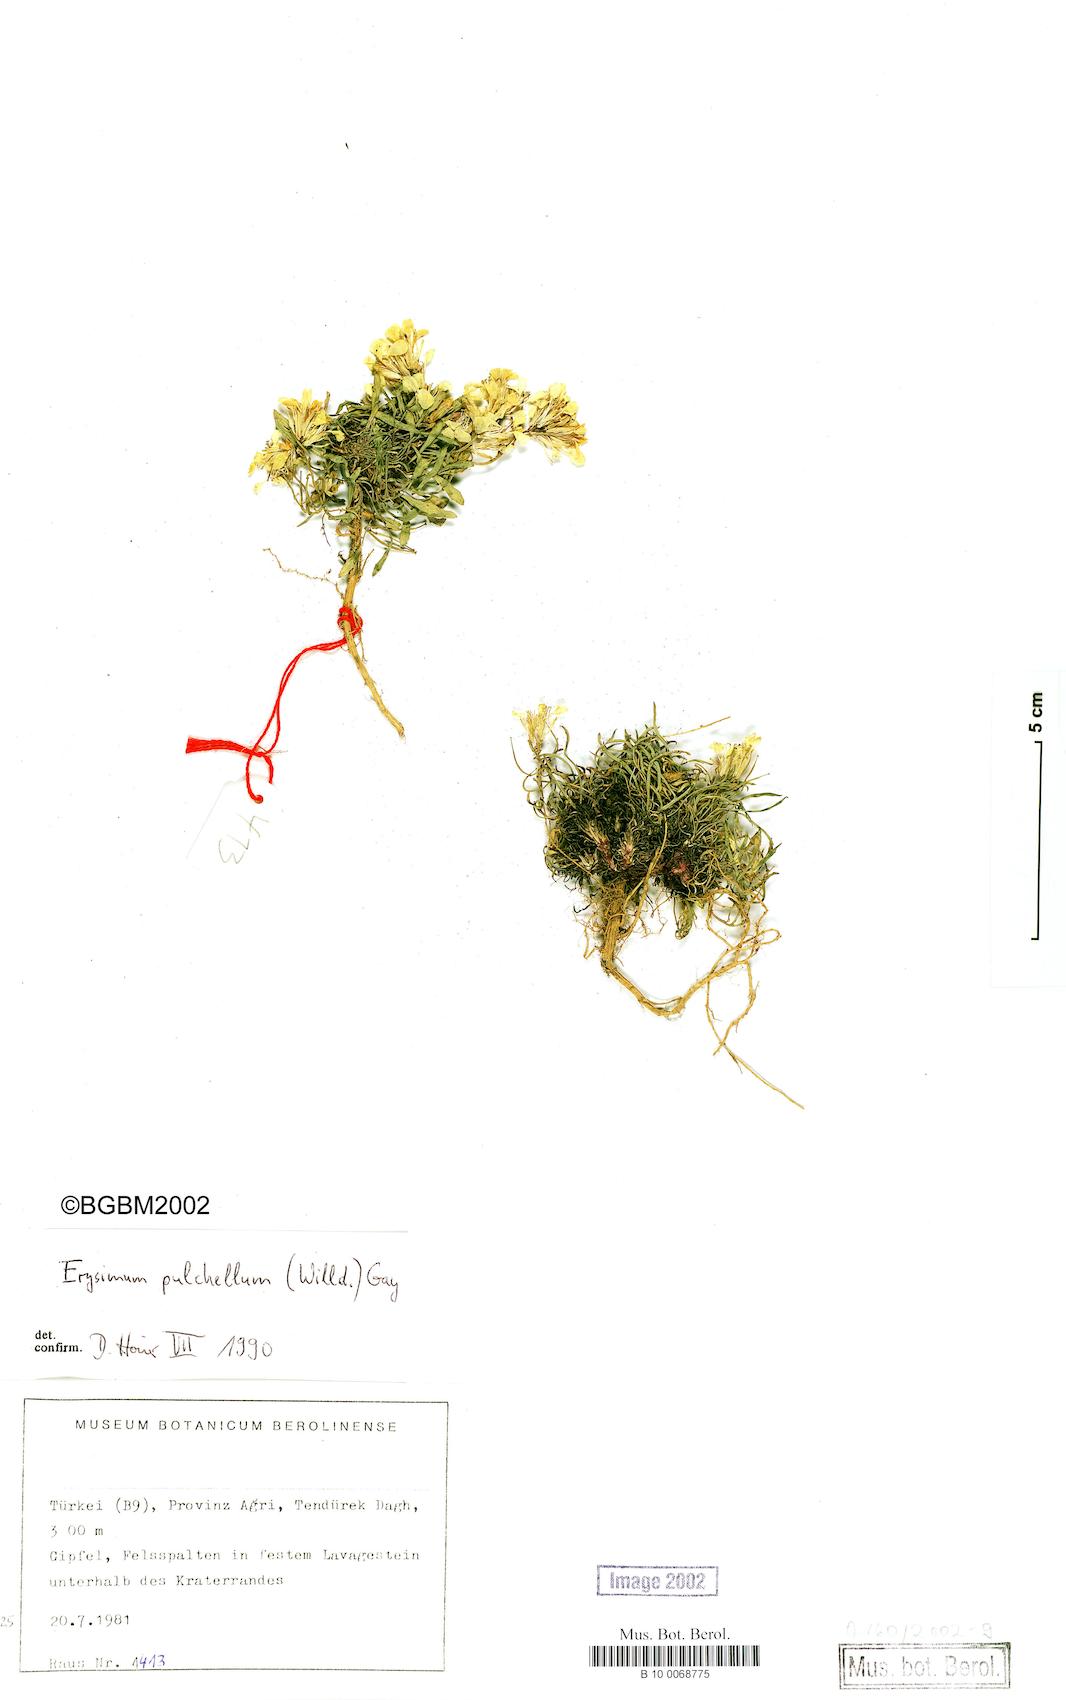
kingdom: Plantae
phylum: Tracheophyta
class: Magnoliopsida
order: Brassicales
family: Brassicaceae
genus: Erysimum
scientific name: Erysimum pulchellum
